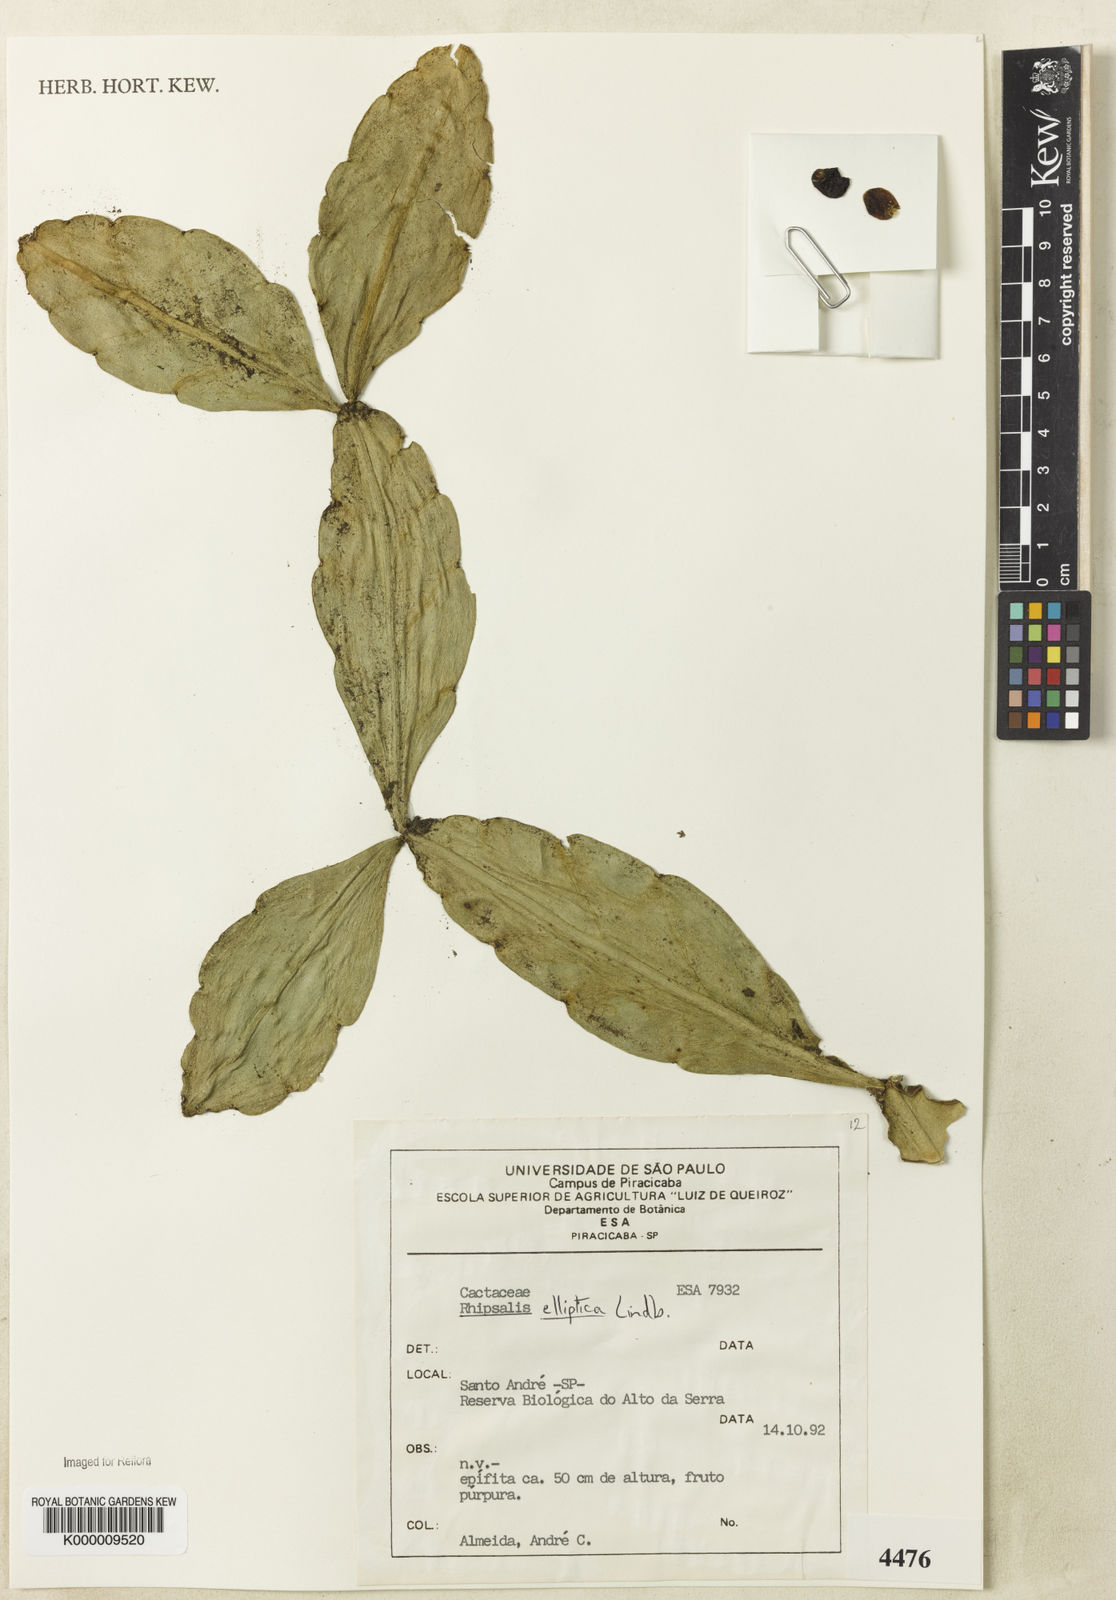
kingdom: Plantae
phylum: Tracheophyta
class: Magnoliopsida
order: Caryophyllales
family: Cactaceae
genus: Rhipsalis
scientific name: Rhipsalis elliptica
